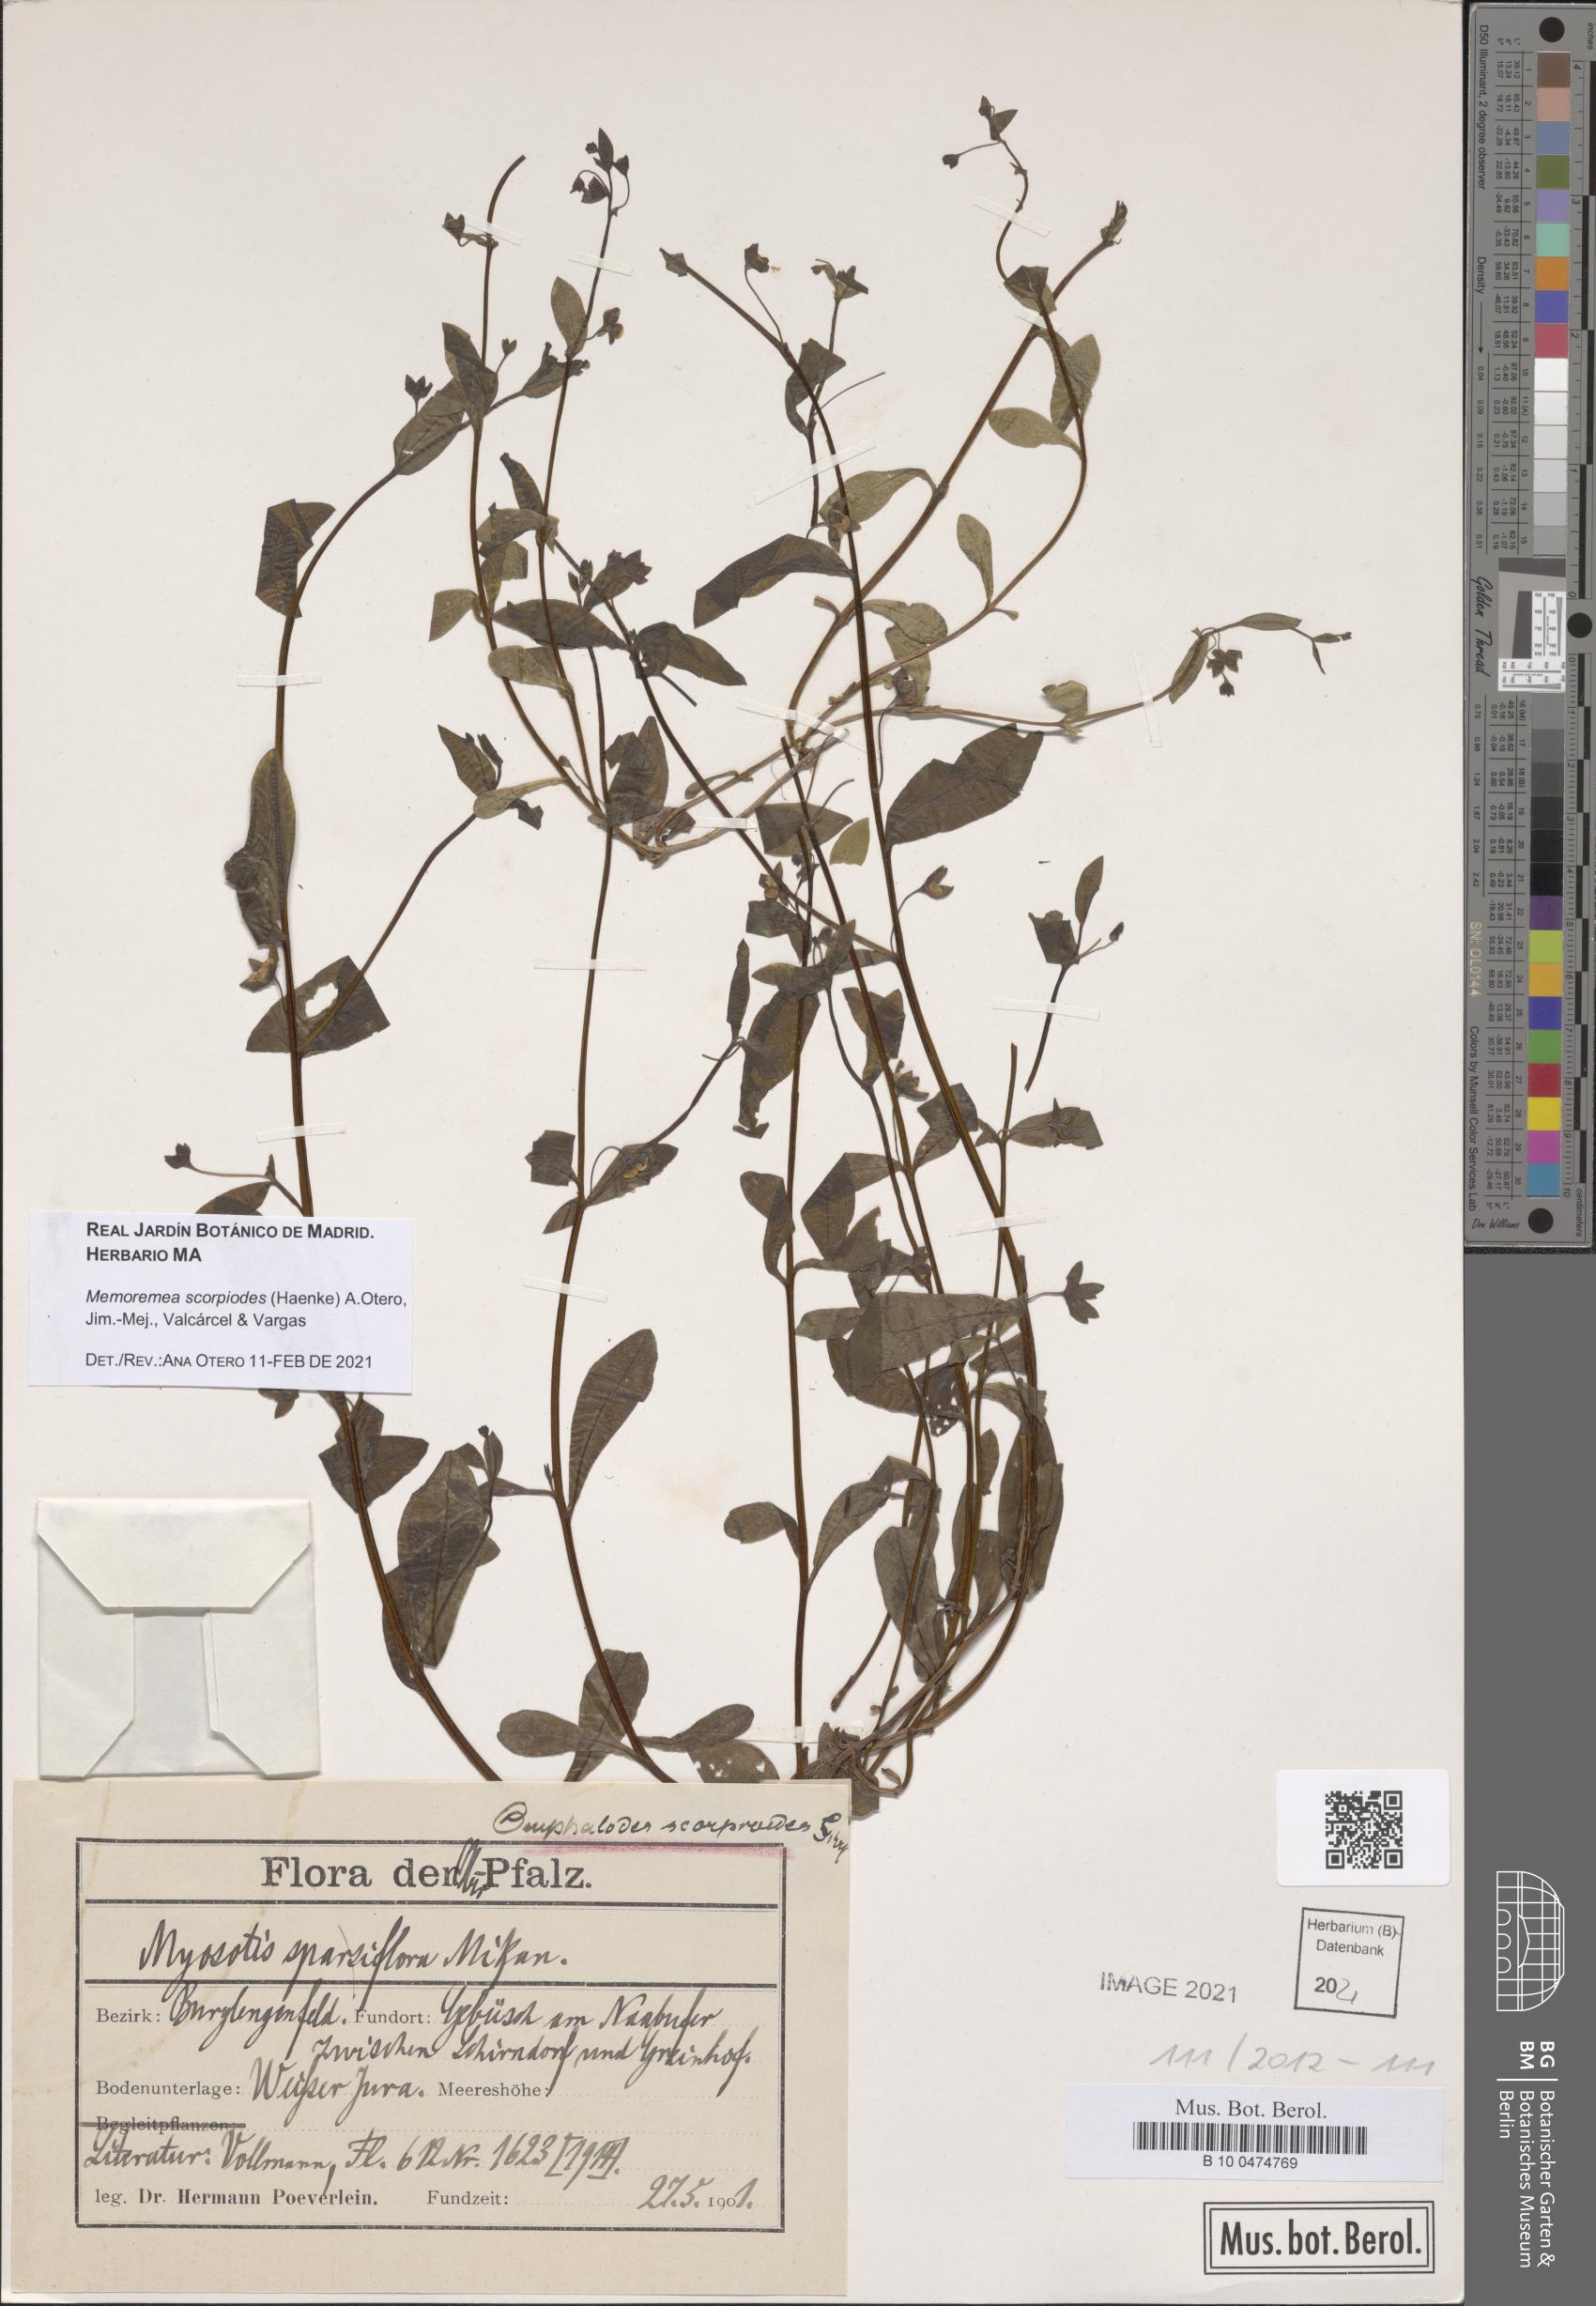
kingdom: Plantae
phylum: Tracheophyta
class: Magnoliopsida
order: Boraginales
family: Boraginaceae
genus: Memoremea
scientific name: Memoremea scorpioides
